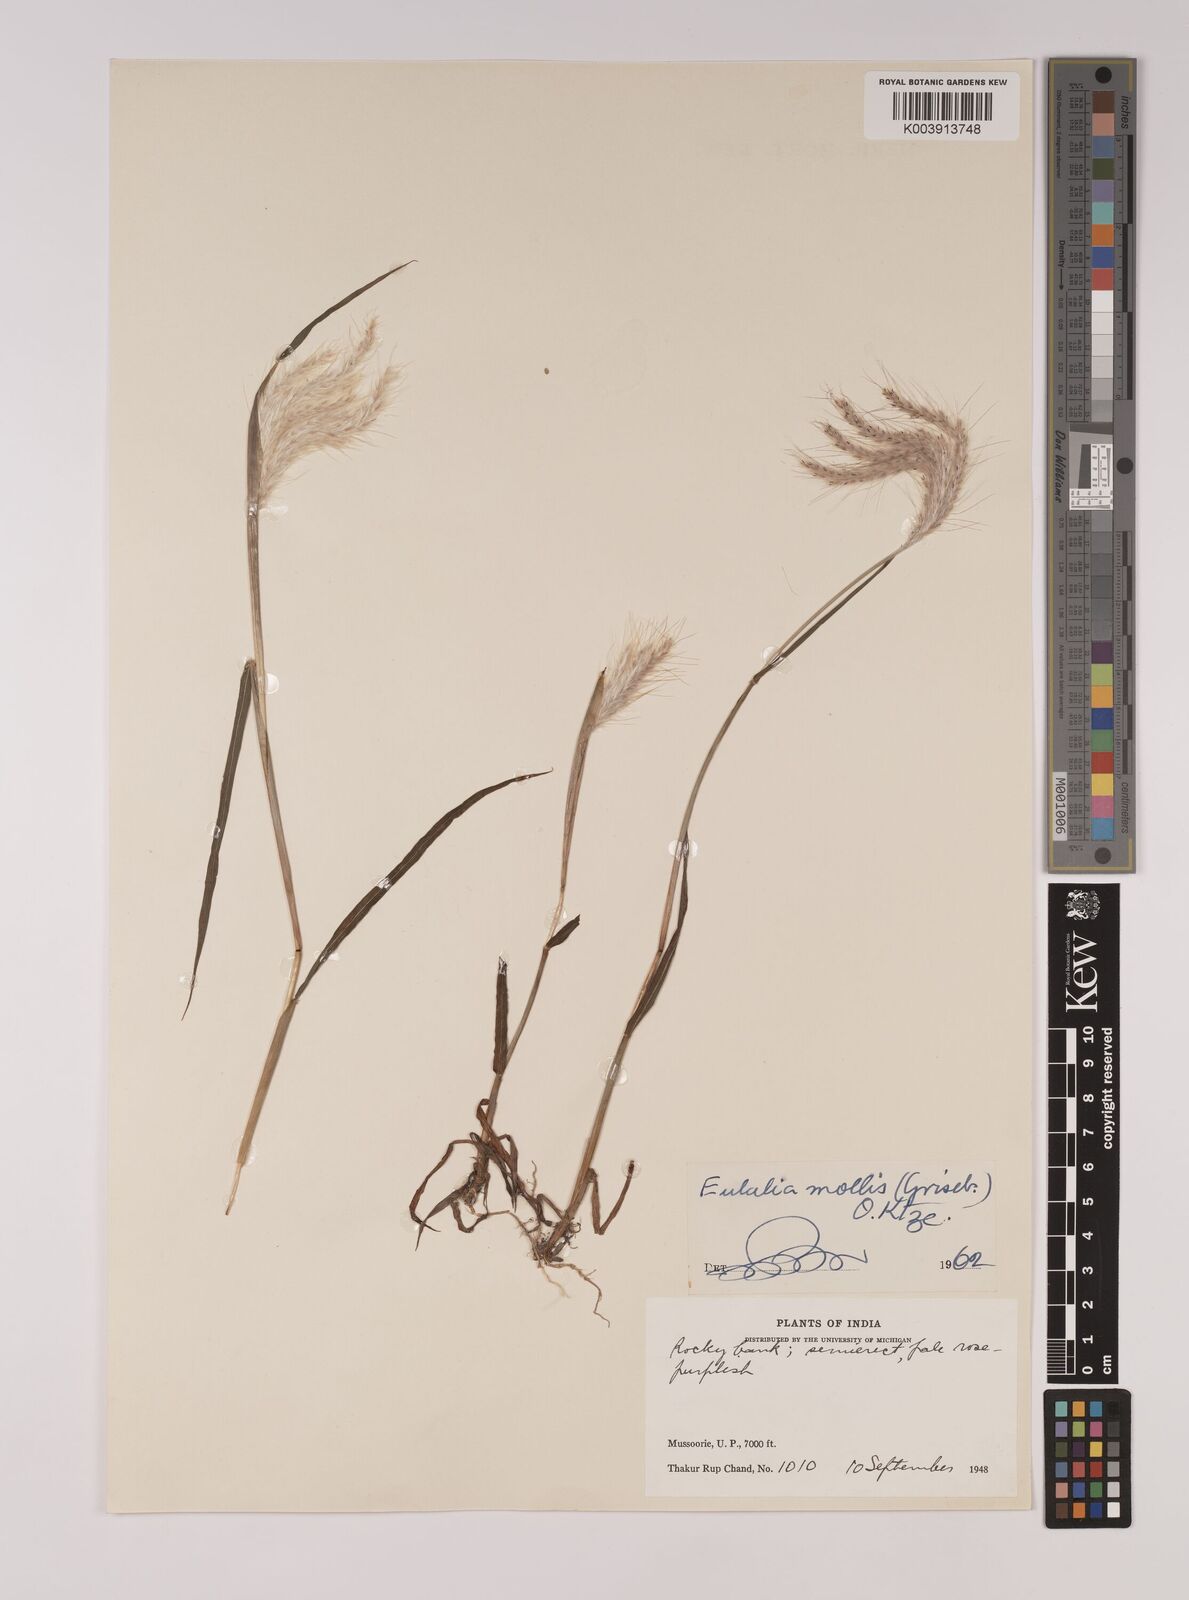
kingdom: Plantae
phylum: Tracheophyta
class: Liliopsida
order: Poales
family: Poaceae
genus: Eulalia
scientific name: Eulalia mollis
